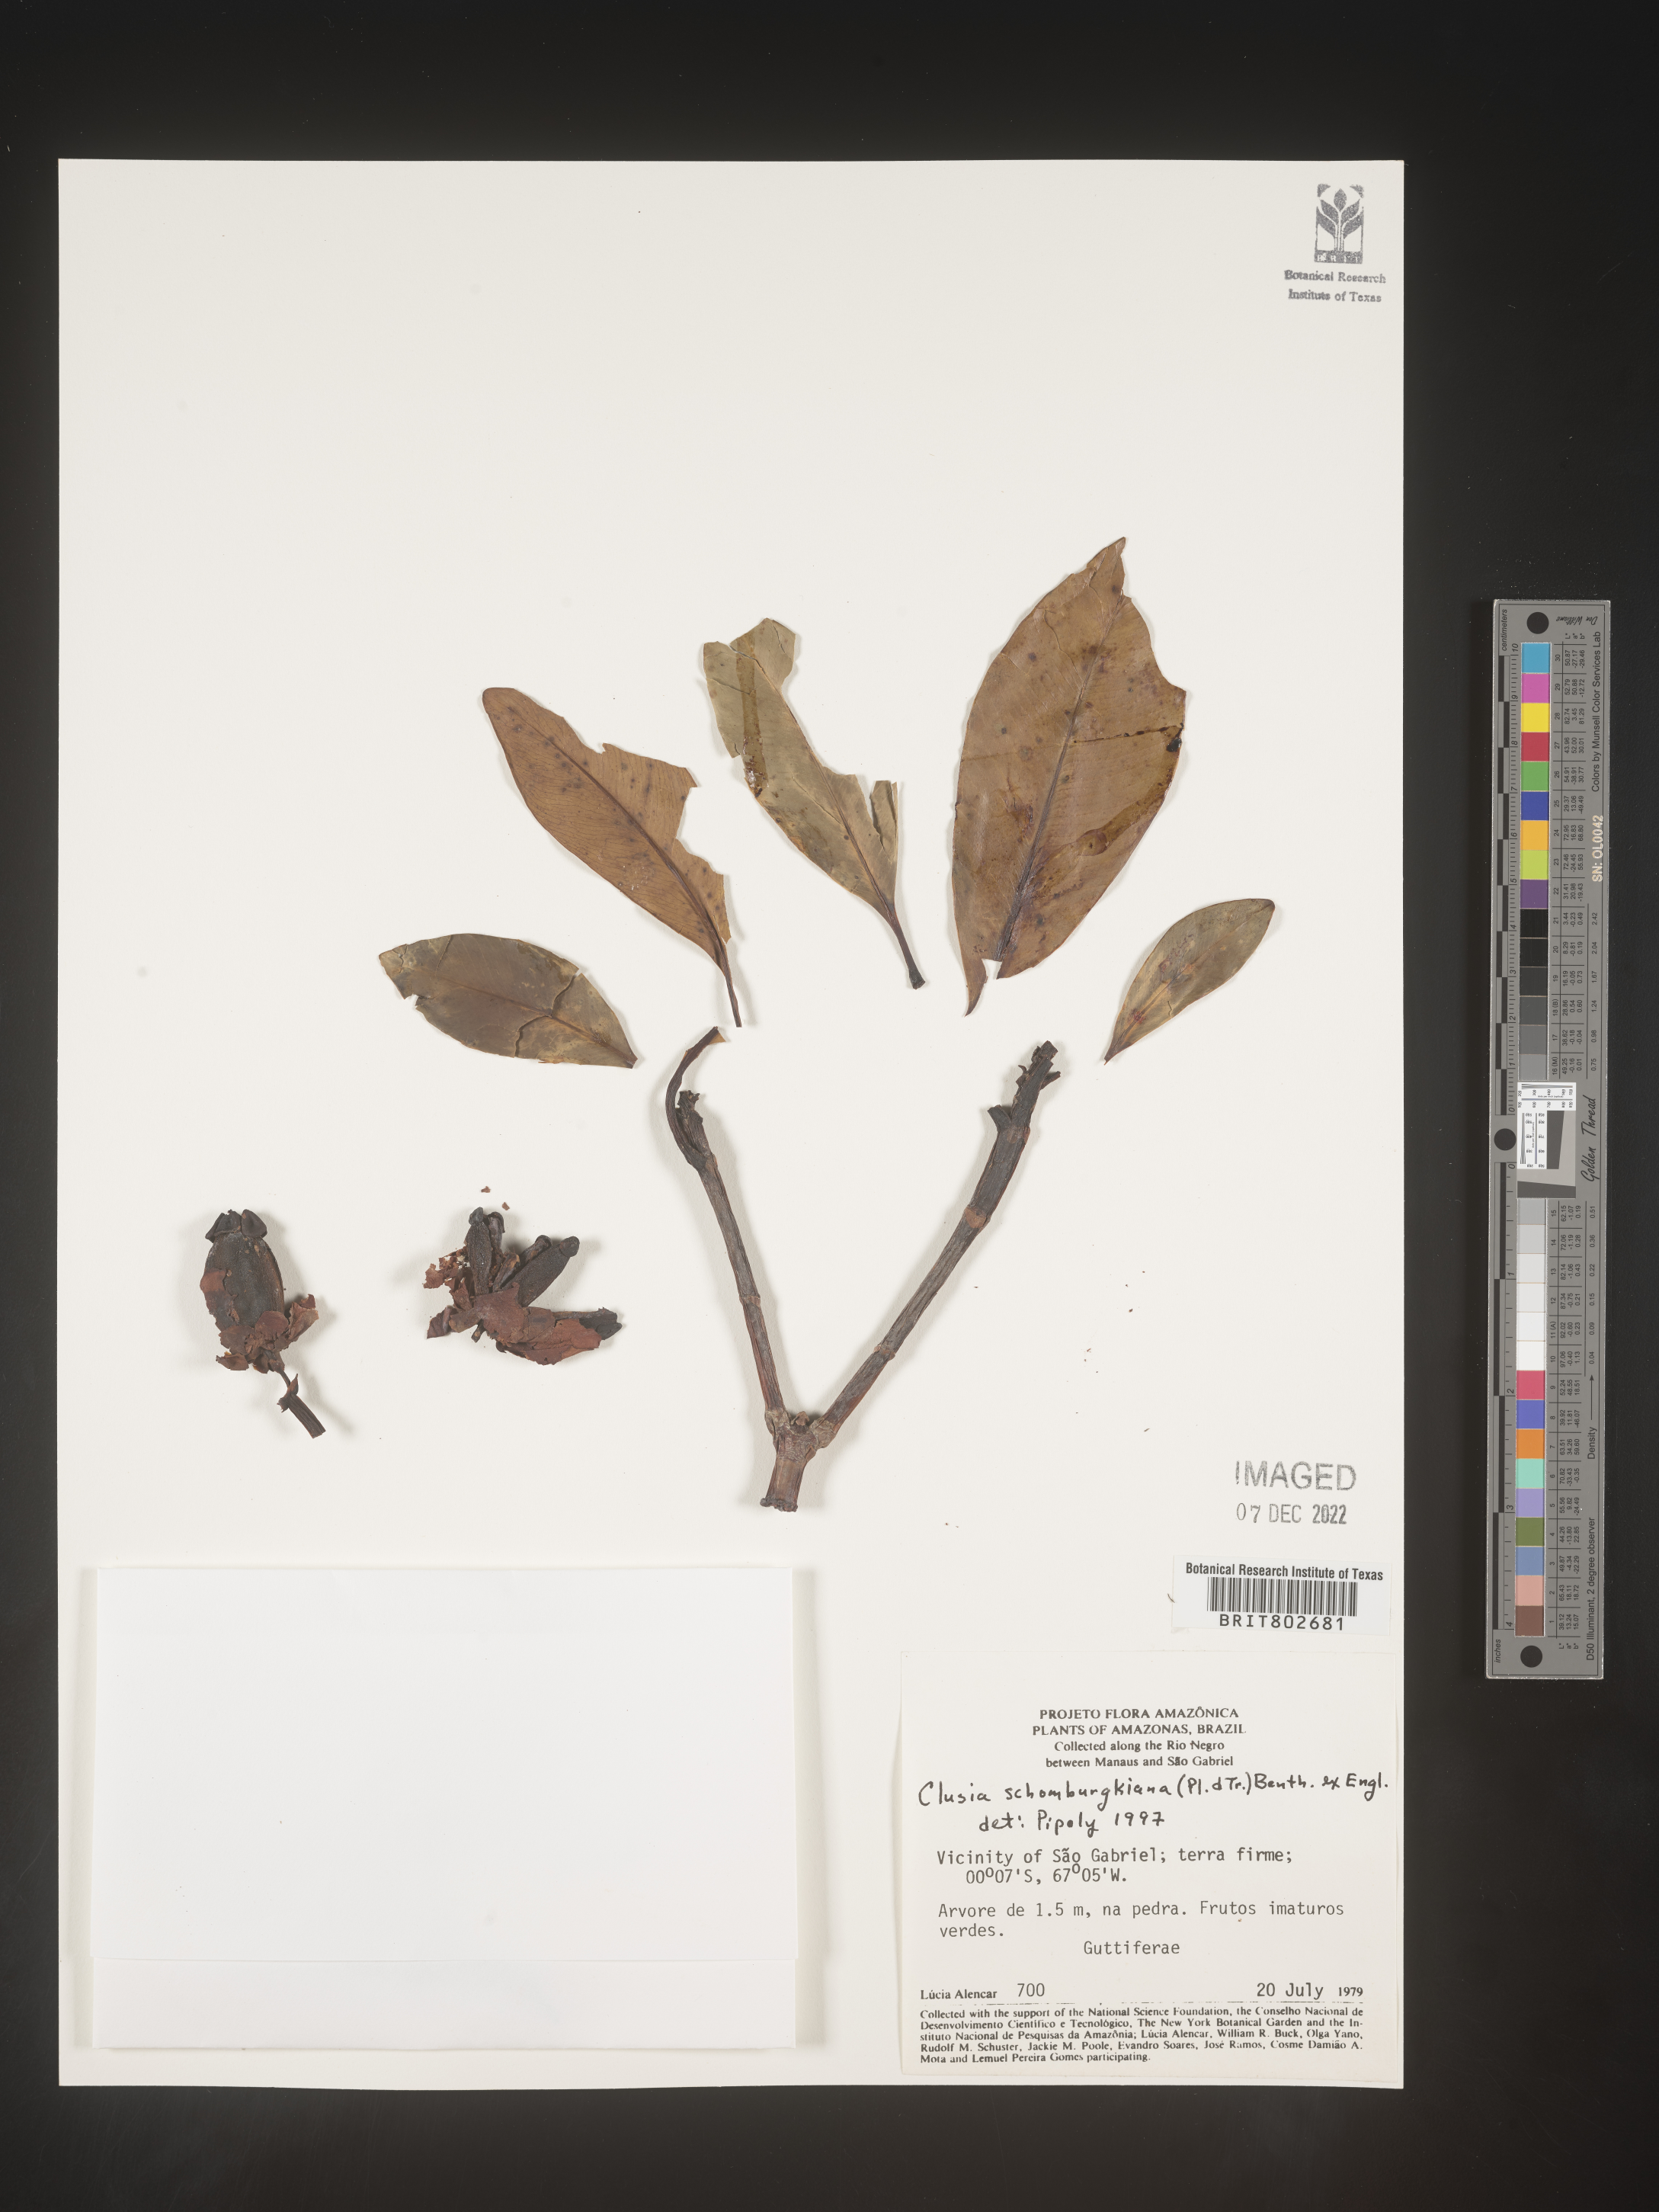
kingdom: Plantae
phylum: Tracheophyta
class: Magnoliopsida
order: Malpighiales
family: Clusiaceae
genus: Clusia
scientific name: Clusia schomburgkiana
